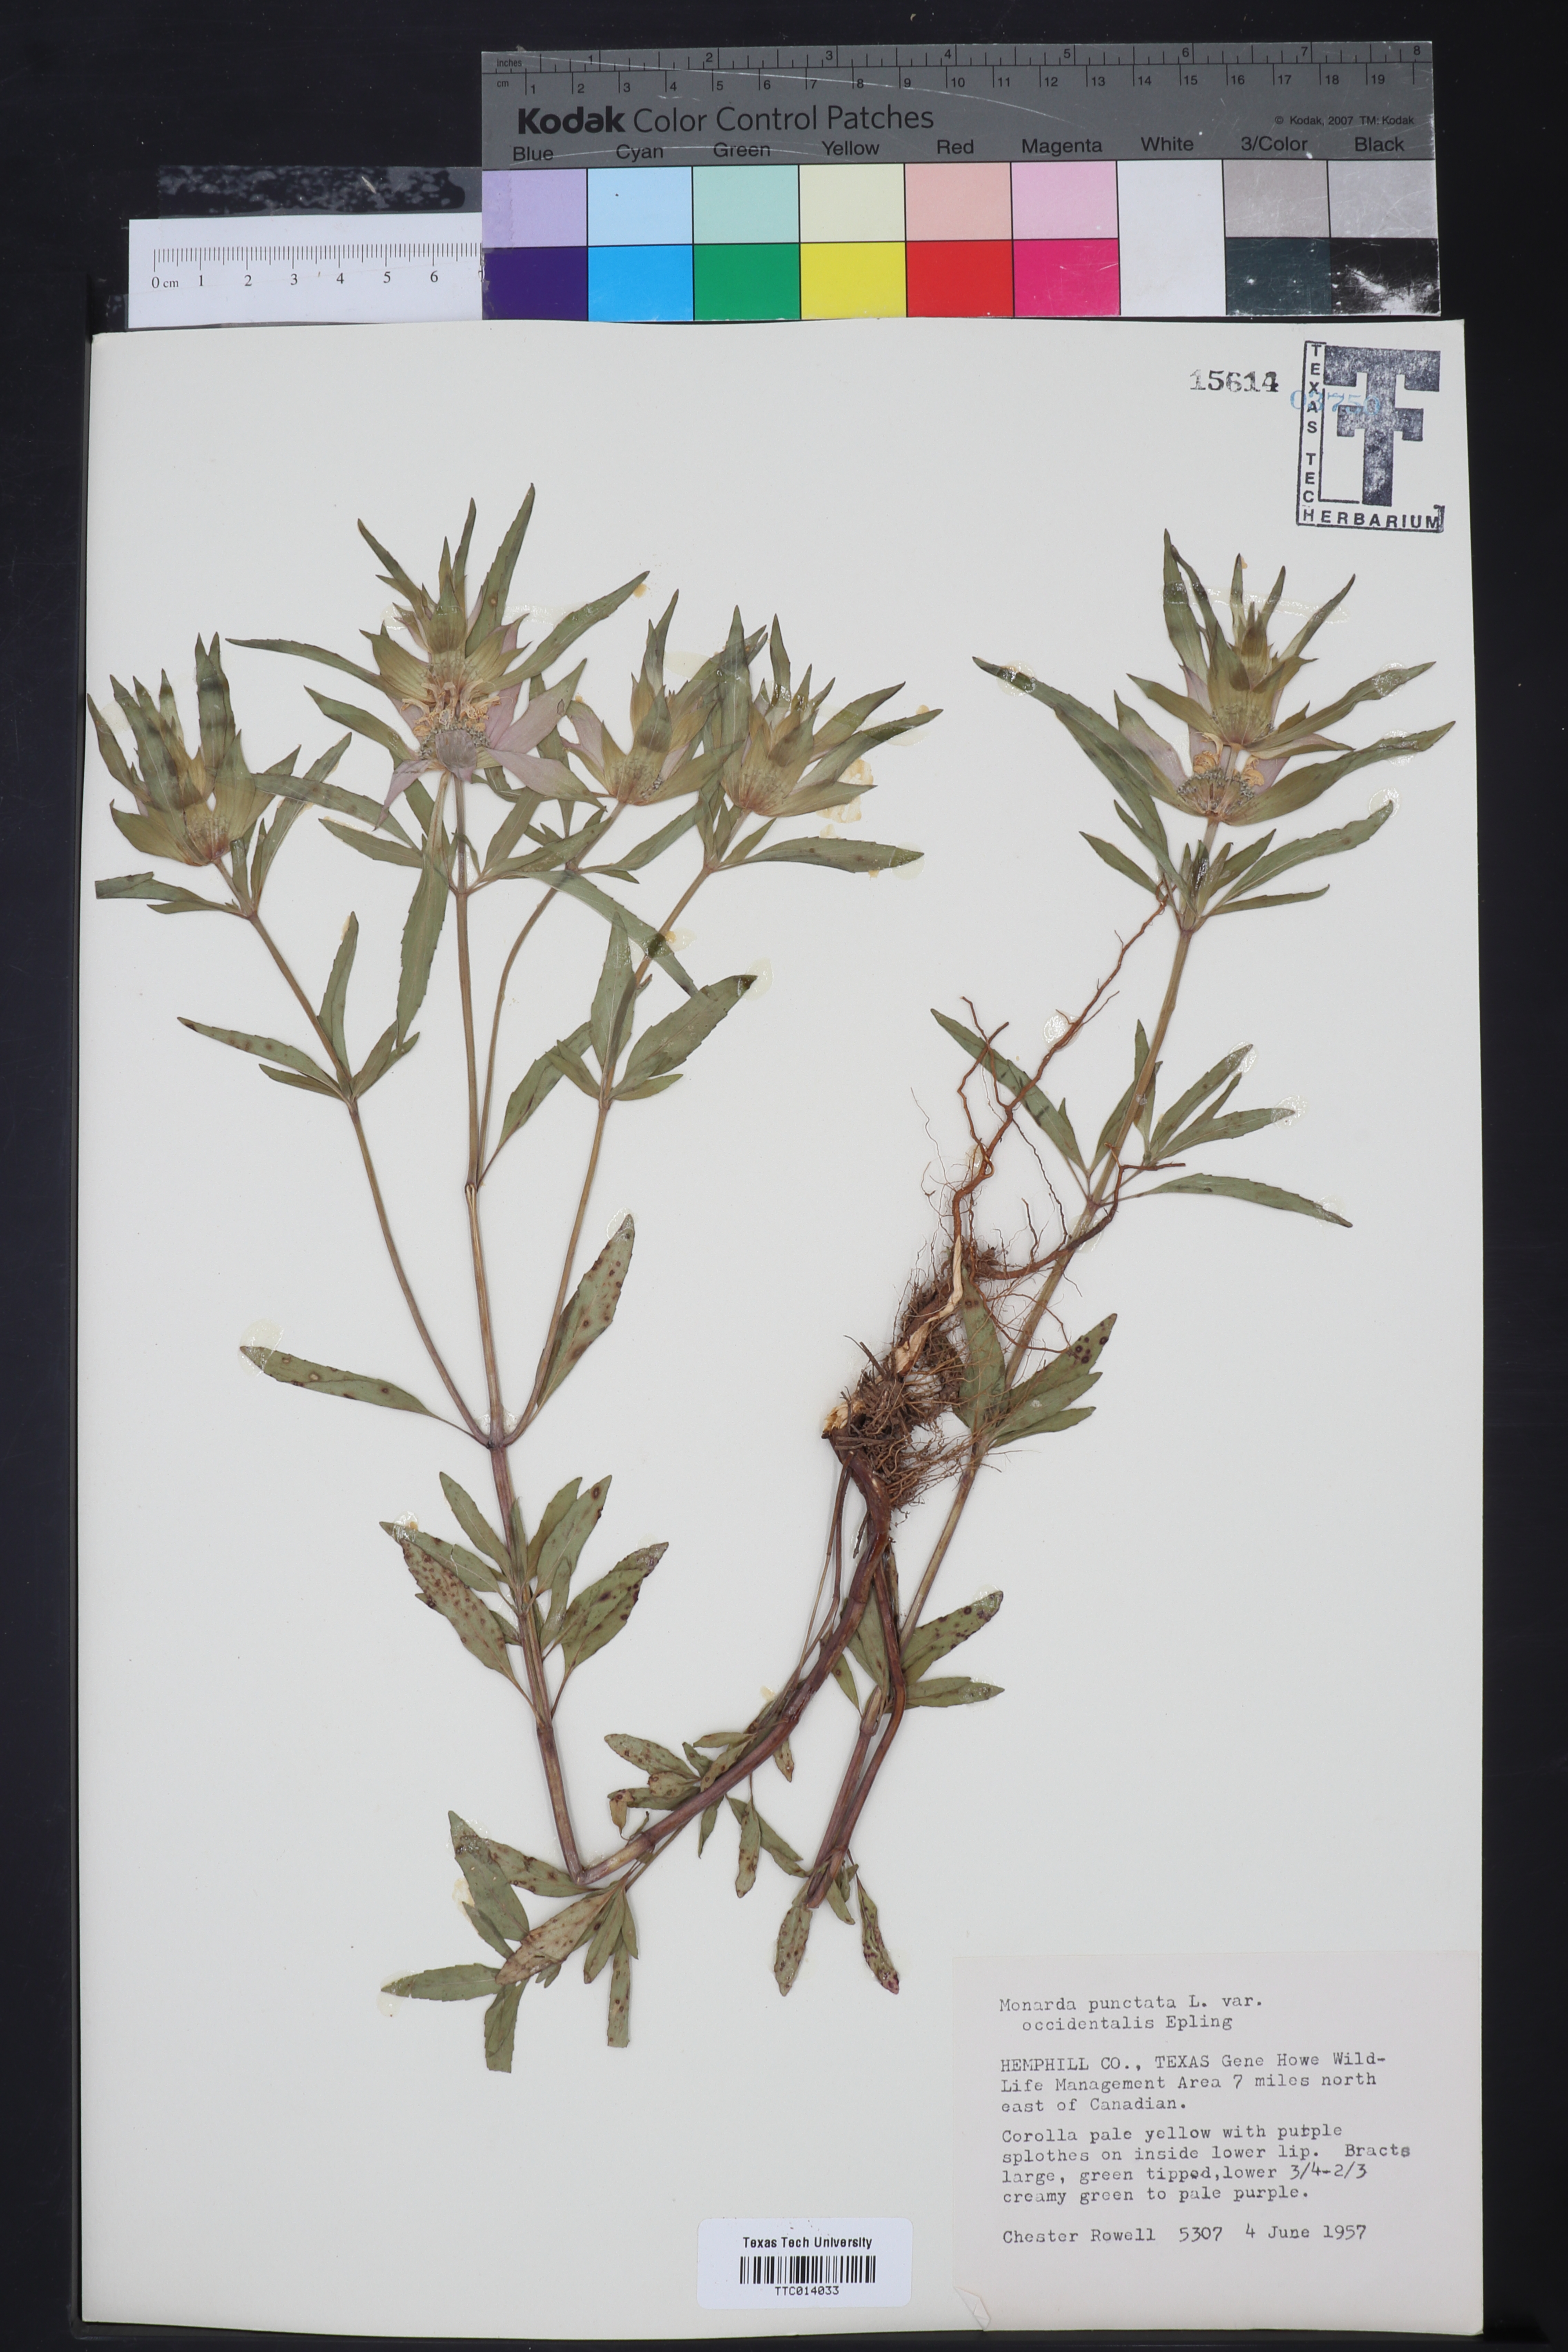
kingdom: Plantae
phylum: Tracheophyta
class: Magnoliopsida
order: Lamiales
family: Lamiaceae
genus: Monarda
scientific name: Monarda punctata
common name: Dotted monarda
